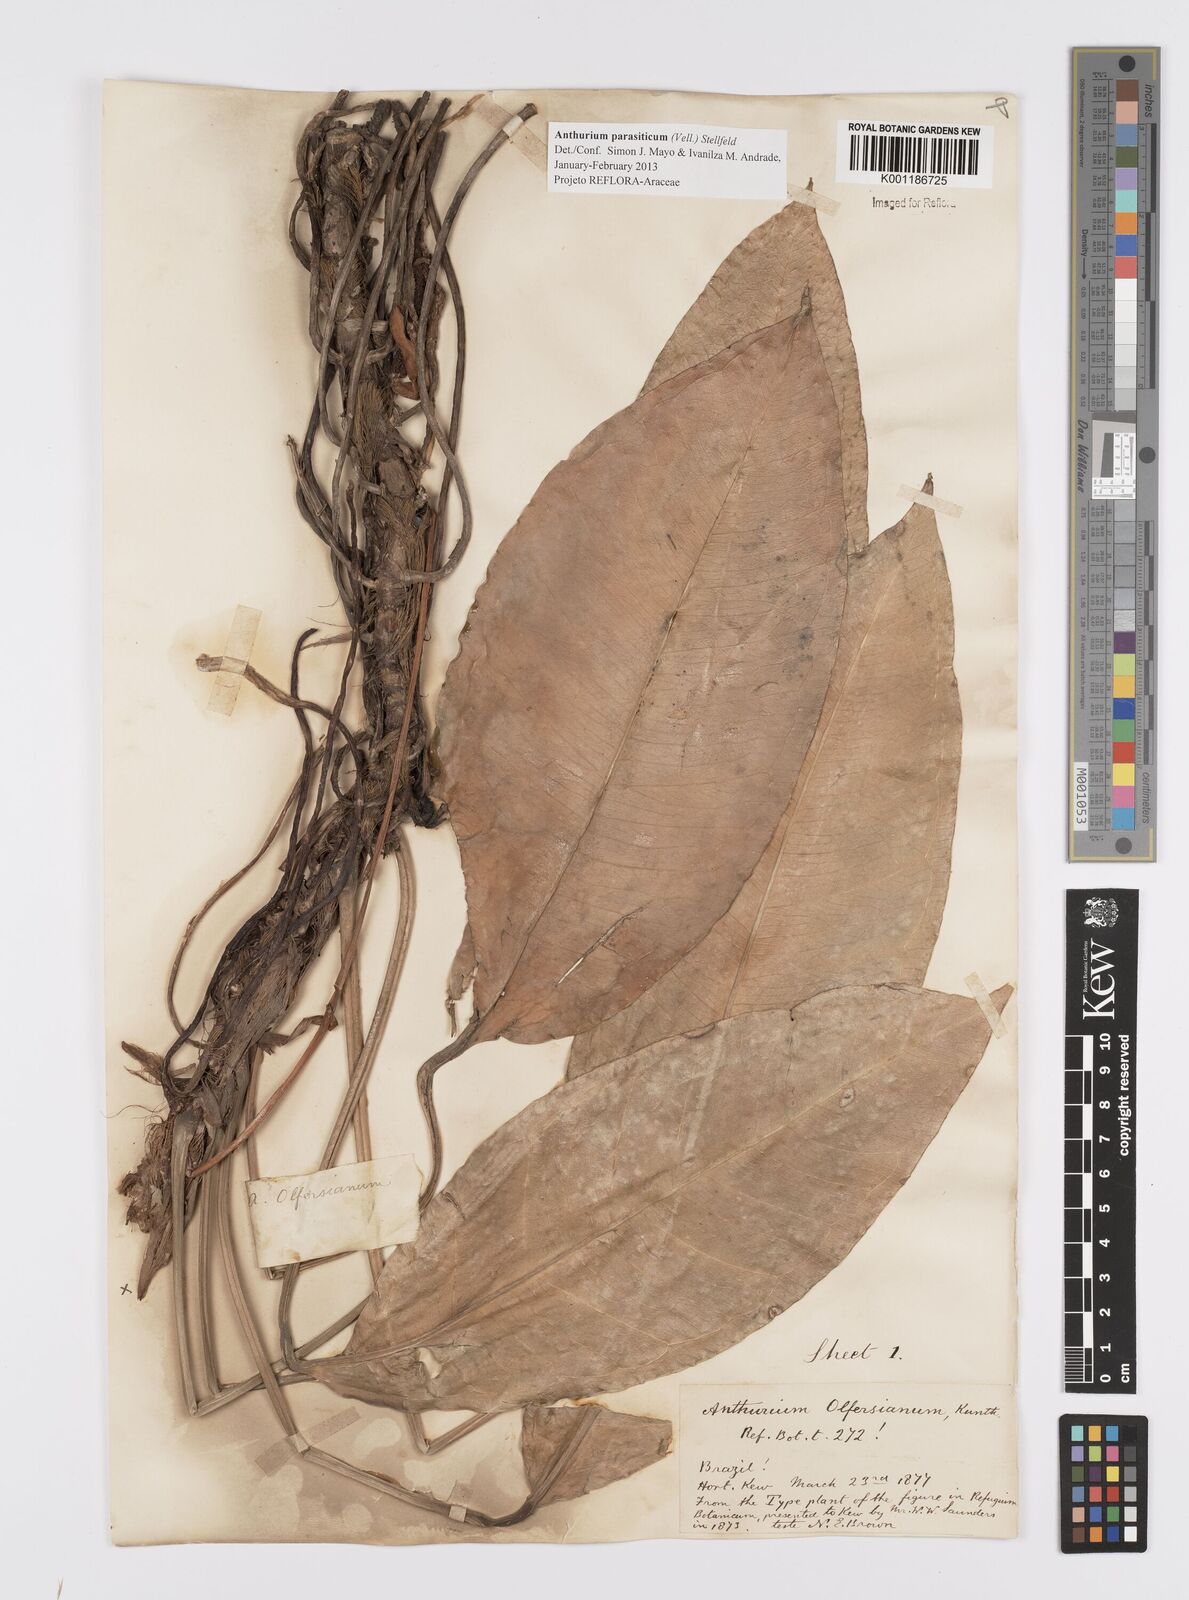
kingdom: Plantae
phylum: Tracheophyta
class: Liliopsida
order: Alismatales
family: Araceae
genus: Anthurium
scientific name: Anthurium parasiticum
